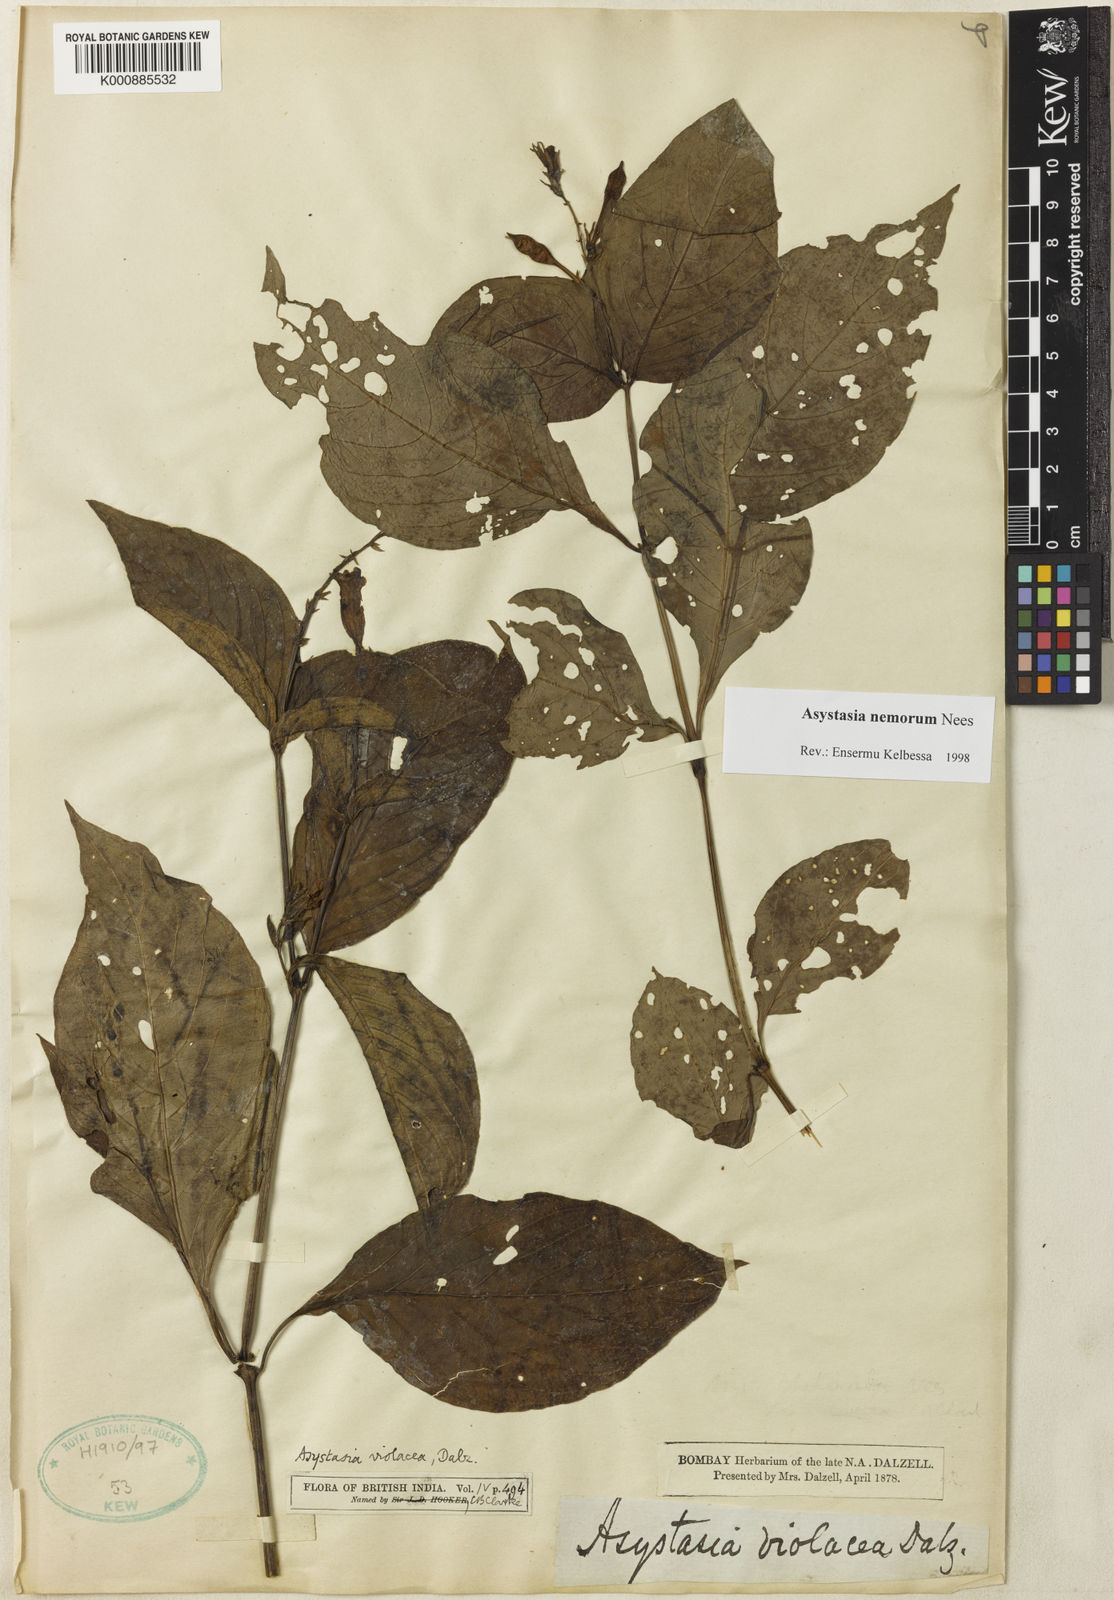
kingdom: Plantae
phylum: Tracheophyta
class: Magnoliopsida
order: Lamiales
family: Acanthaceae
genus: Asystasia
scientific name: Asystasia nemorum
